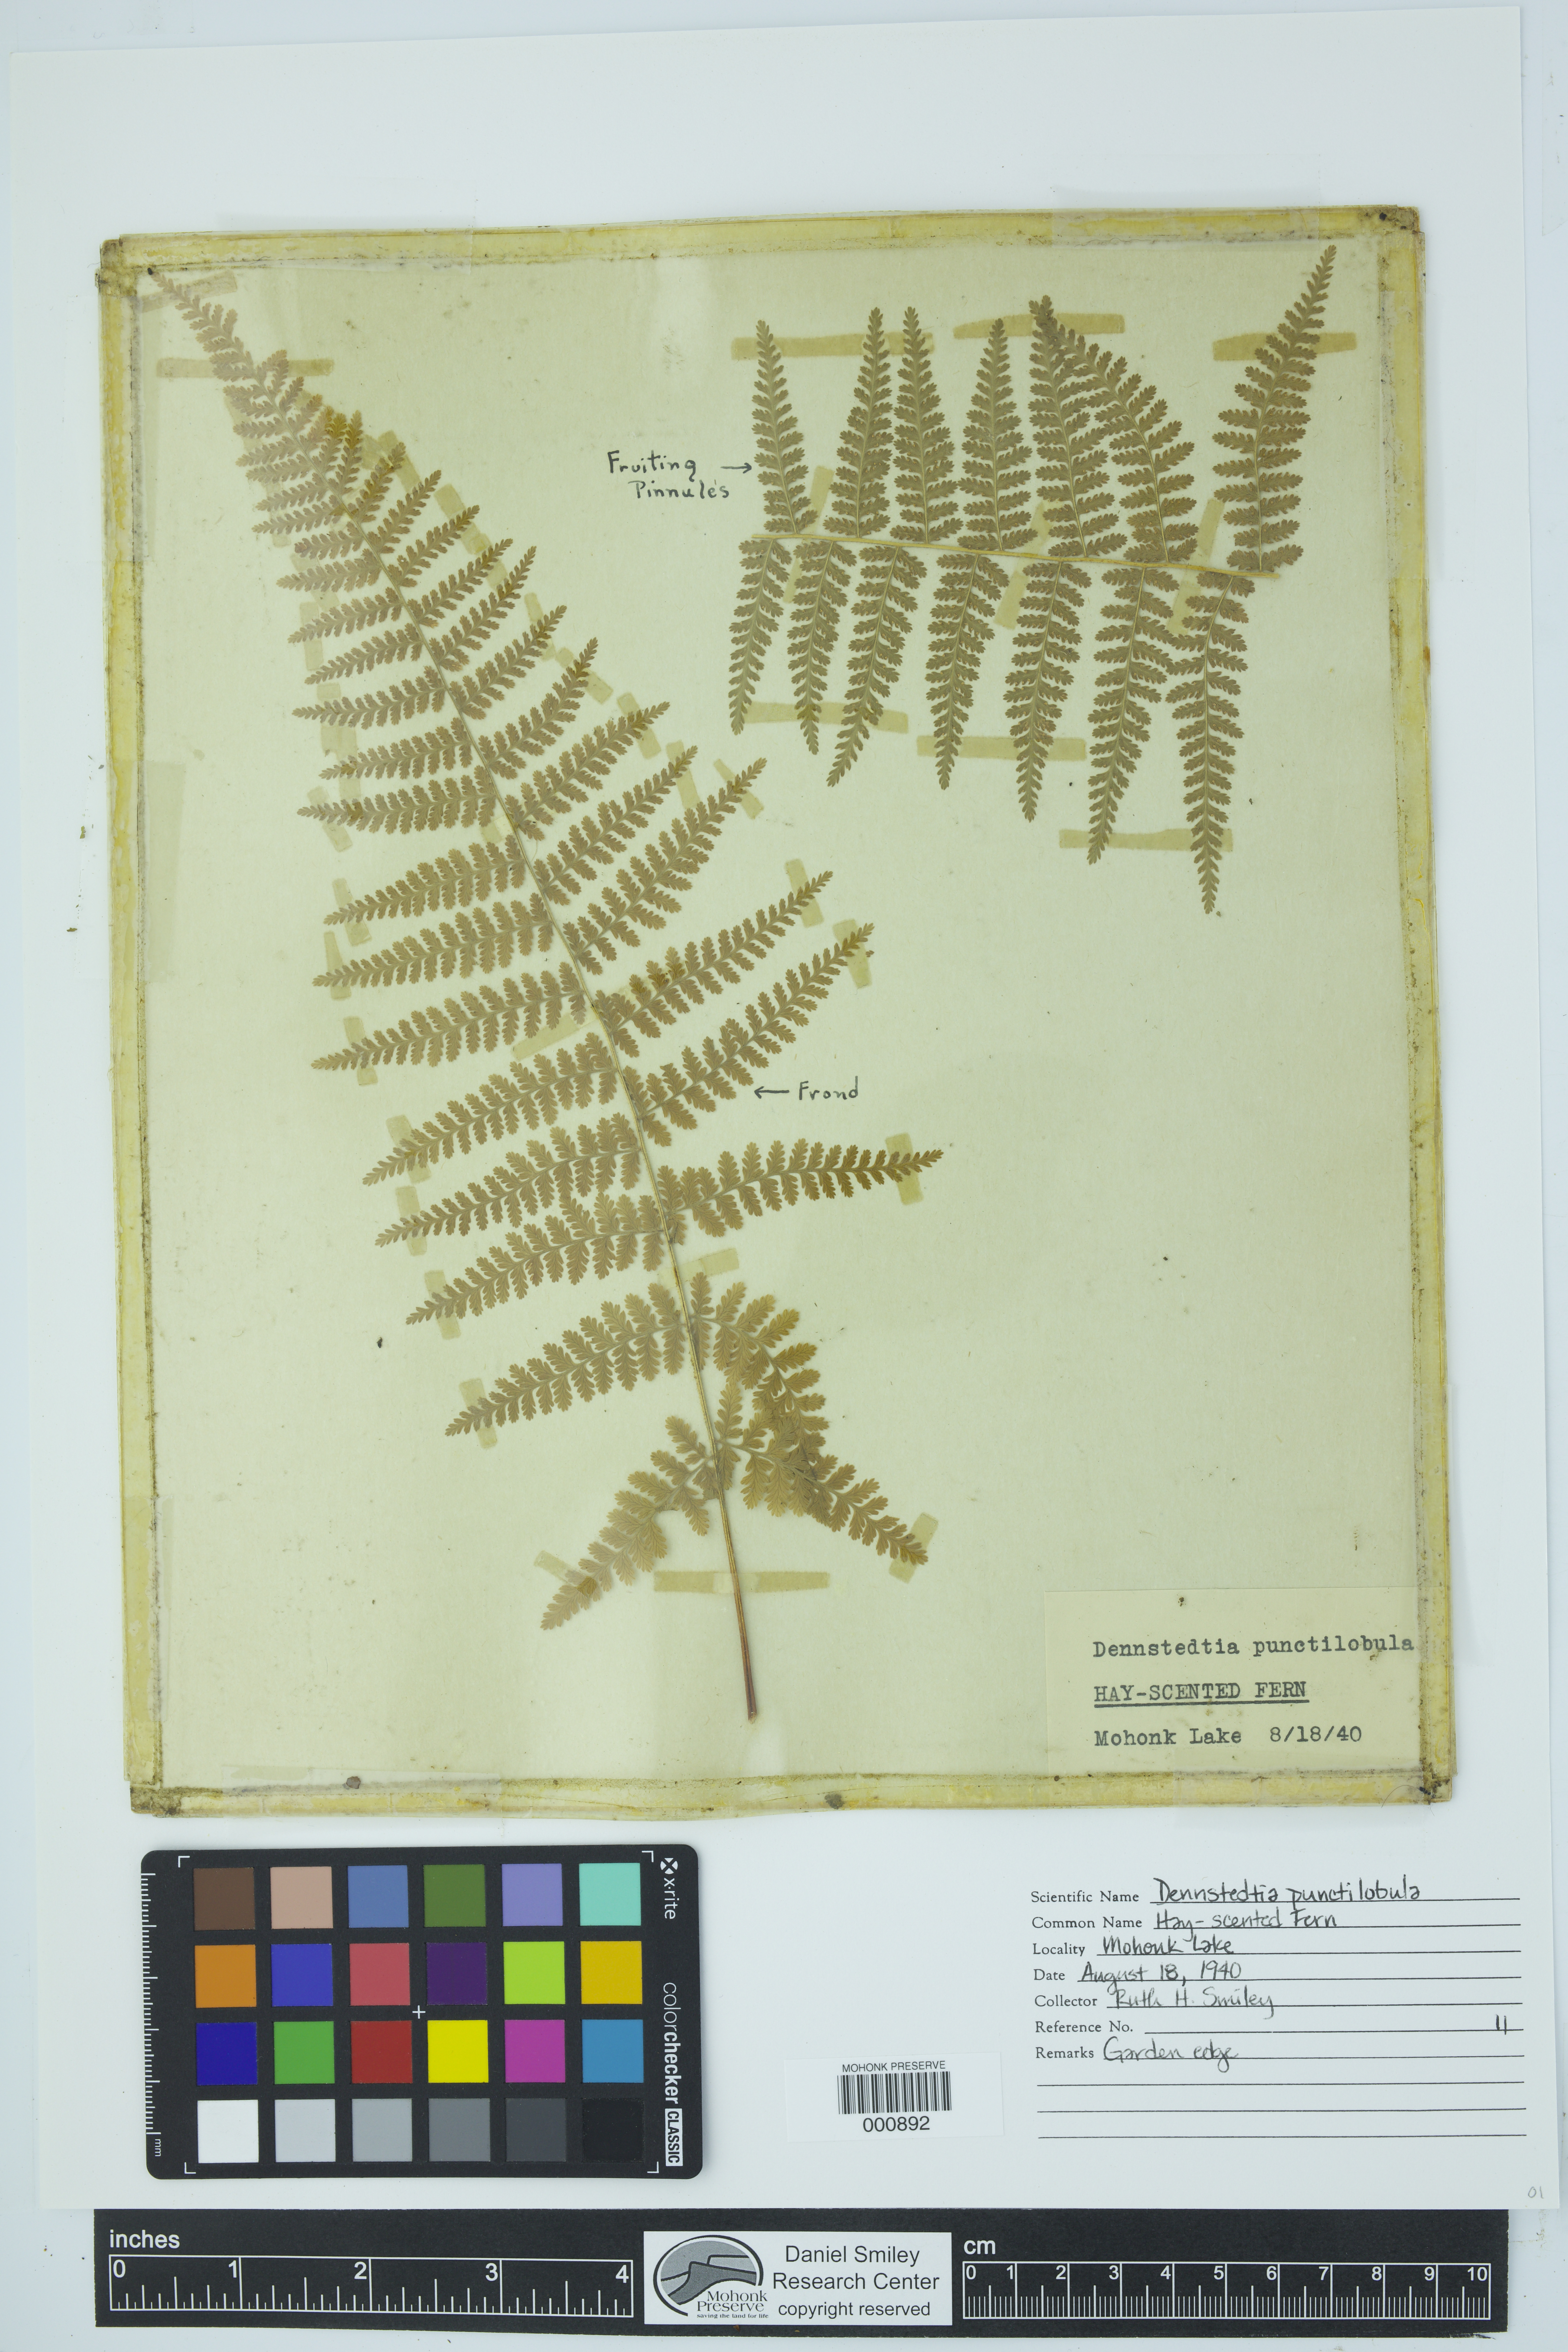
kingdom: Plantae
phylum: Tracheophyta
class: Polypodiopsida
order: Polypodiales
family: Dennstaedtiaceae
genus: Sitobolium
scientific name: Sitobolium punctilobum
